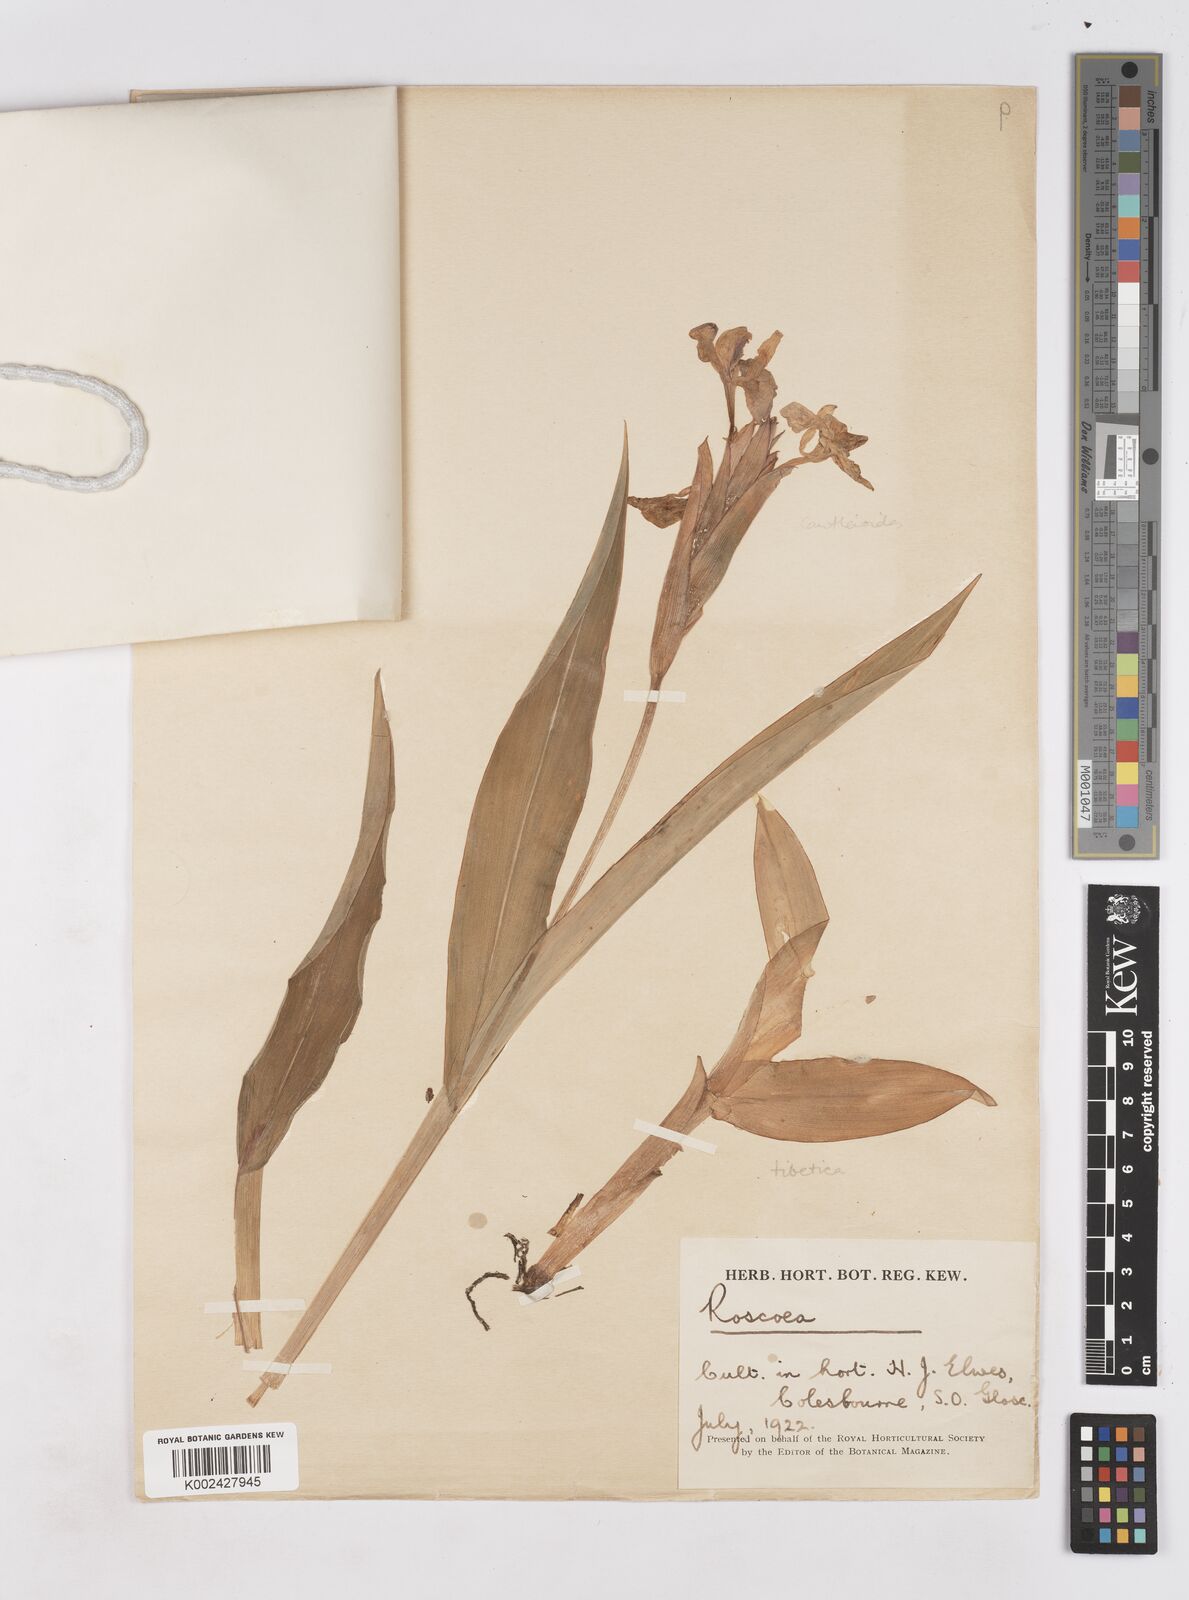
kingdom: Plantae
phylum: Tracheophyta
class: Liliopsida
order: Zingiberales
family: Zingiberaceae
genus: Roscoea
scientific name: Roscoea
